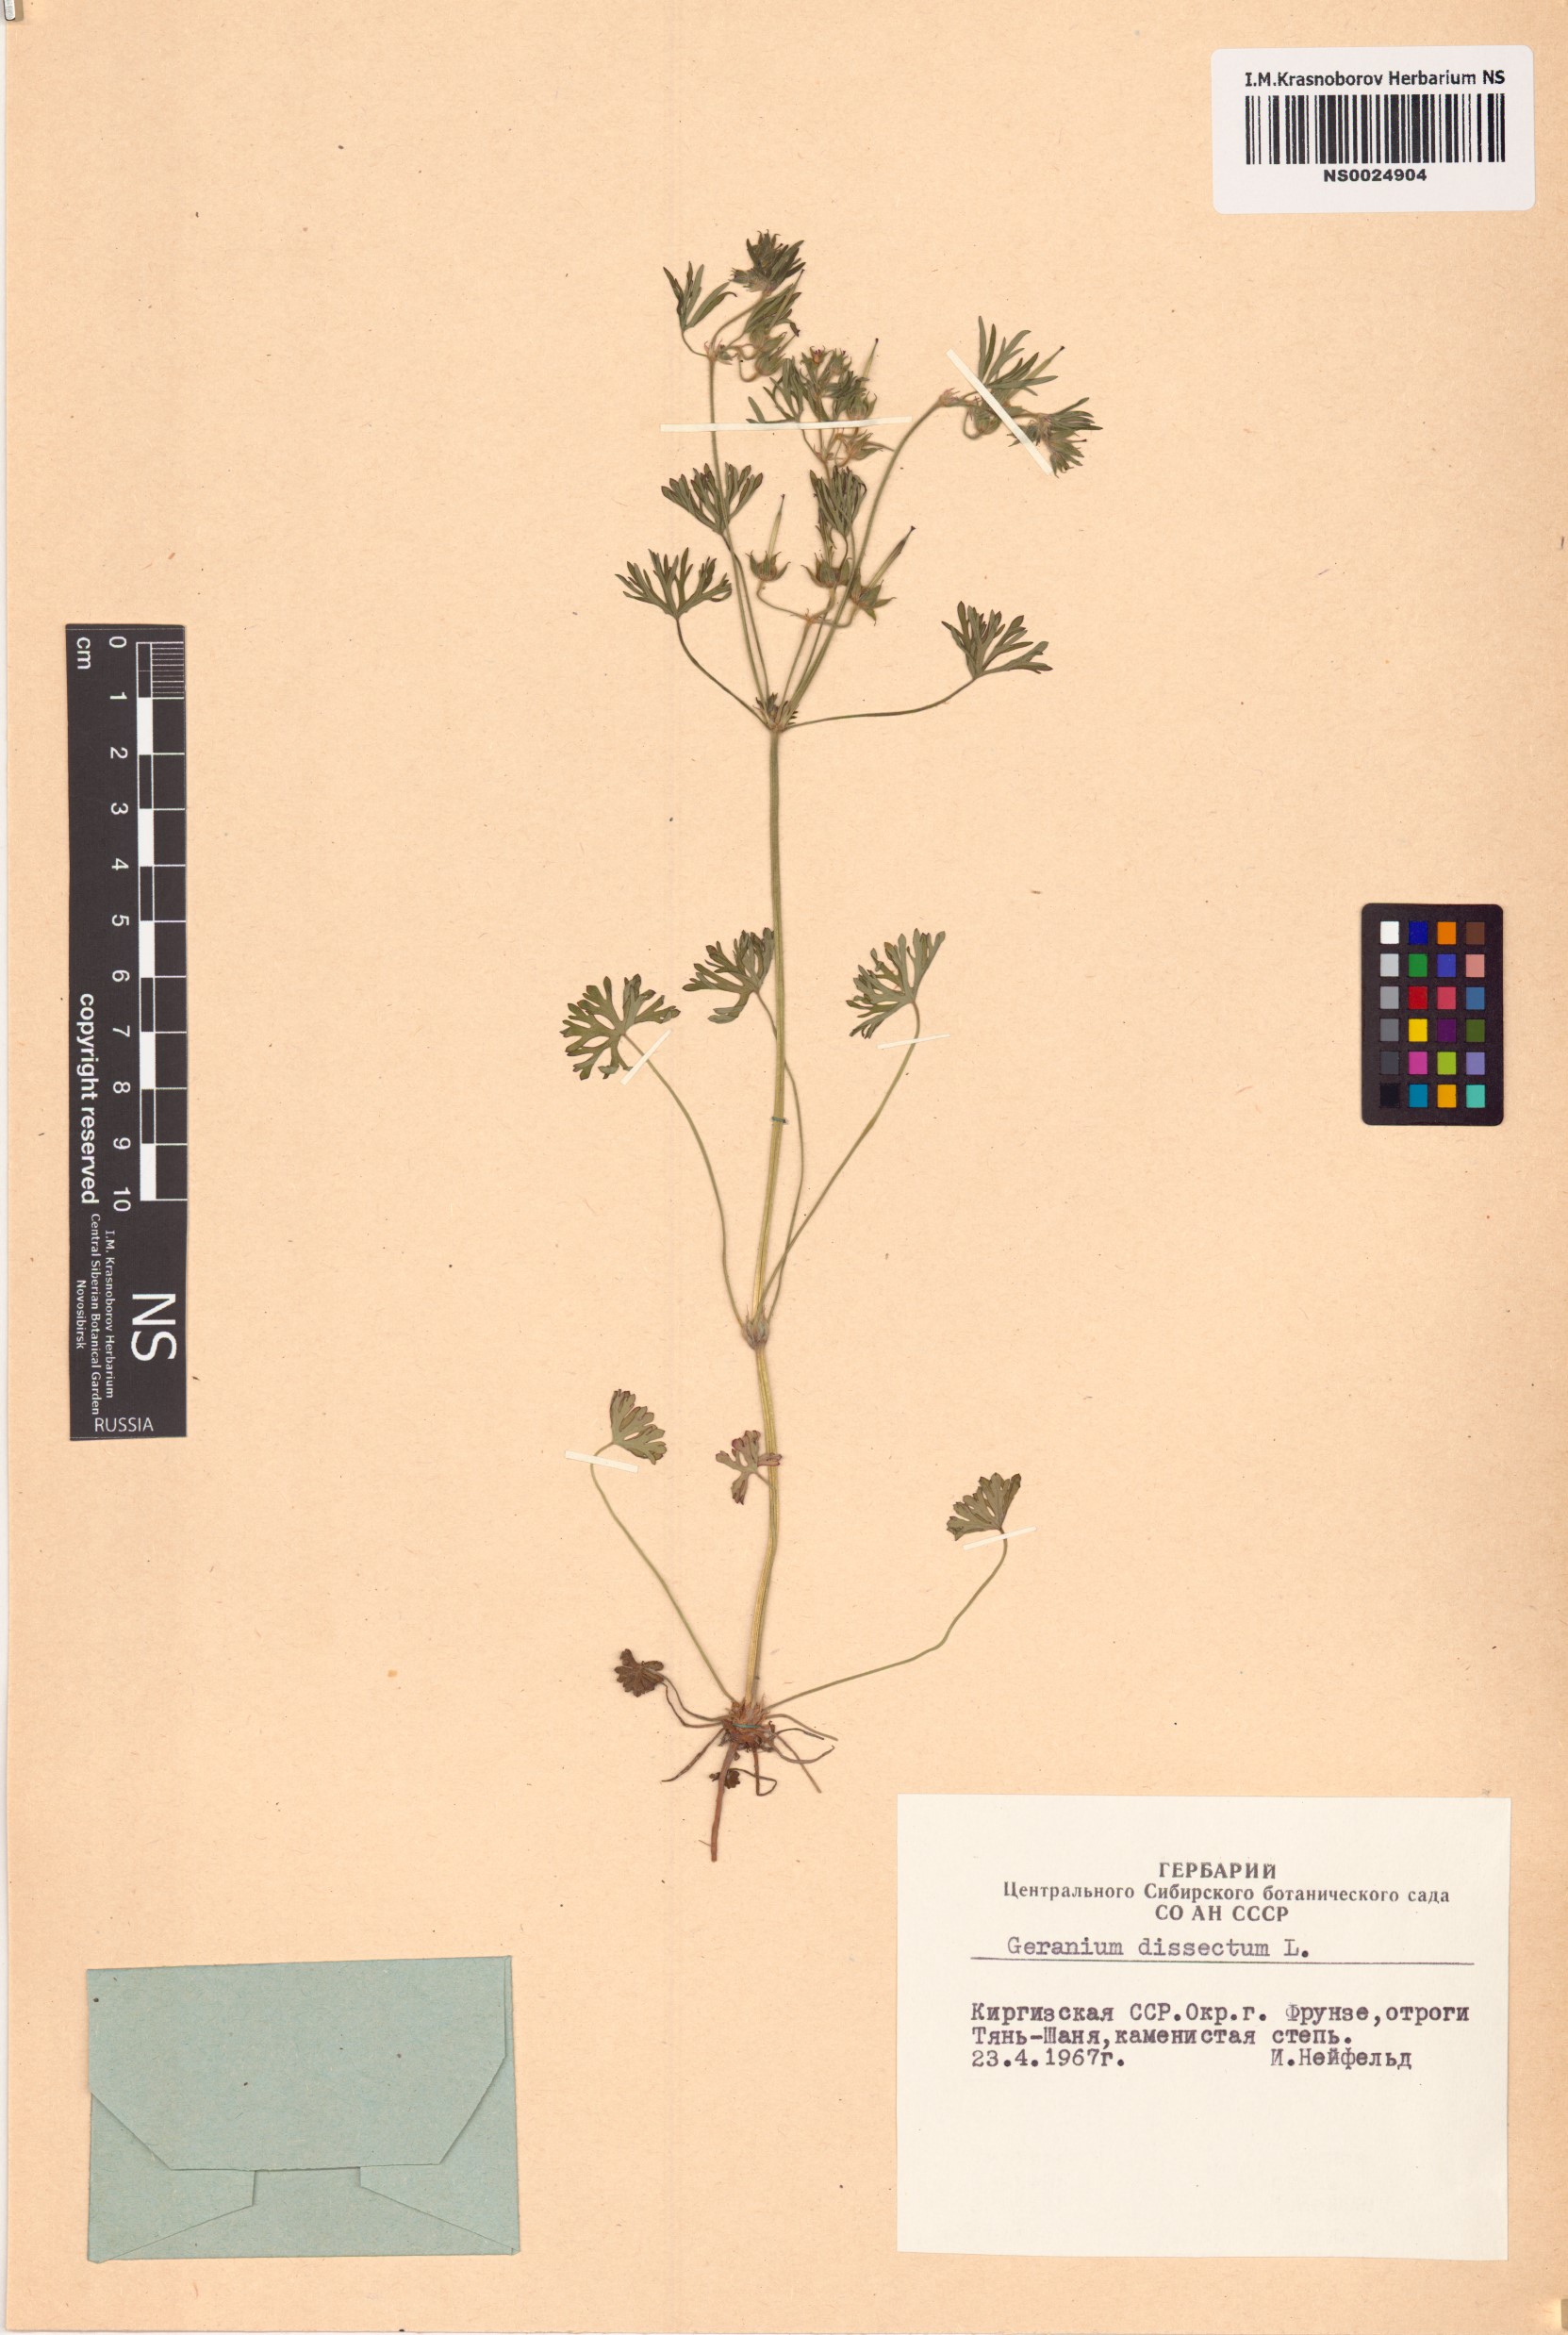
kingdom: Plantae
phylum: Tracheophyta
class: Magnoliopsida
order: Geraniales
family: Geraniaceae
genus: Geranium
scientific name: Geranium dissectum
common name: Cut-leaved crane's-bill
